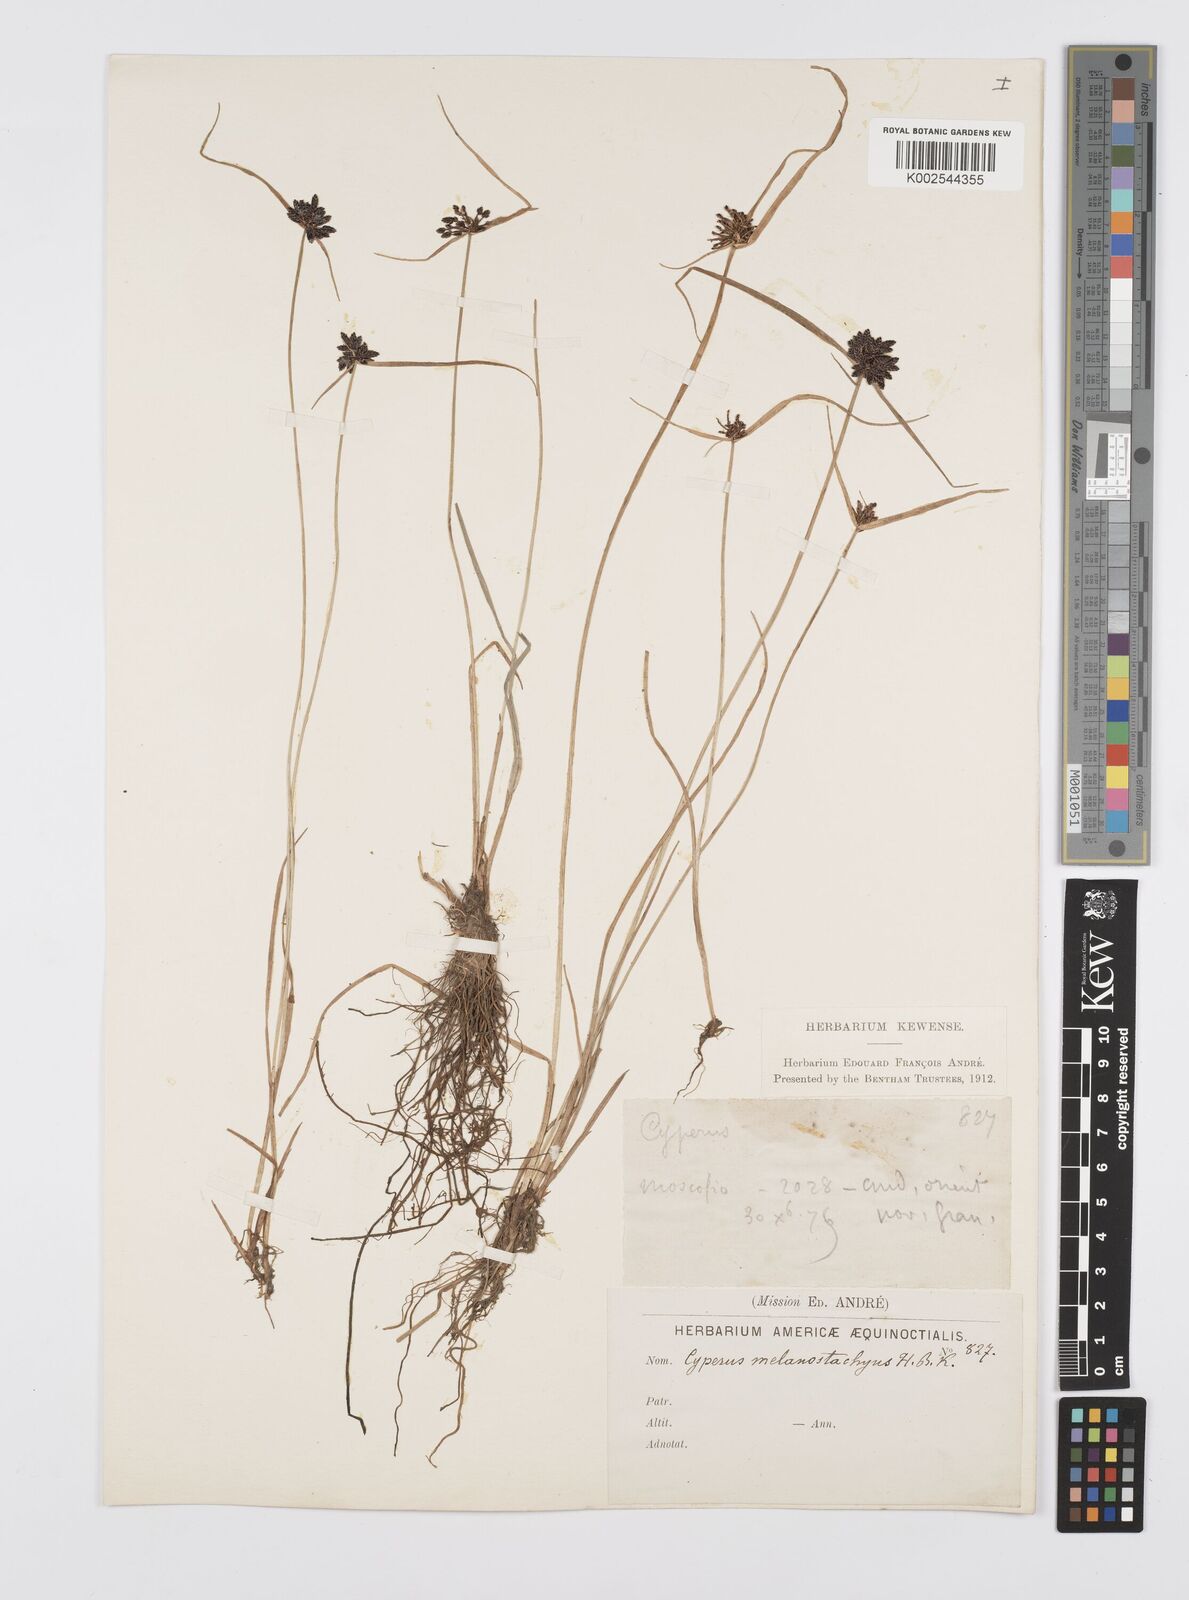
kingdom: Plantae
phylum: Tracheophyta
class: Liliopsida
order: Poales
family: Cyperaceae
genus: Cyperus
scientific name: Cyperus melanostachyus
